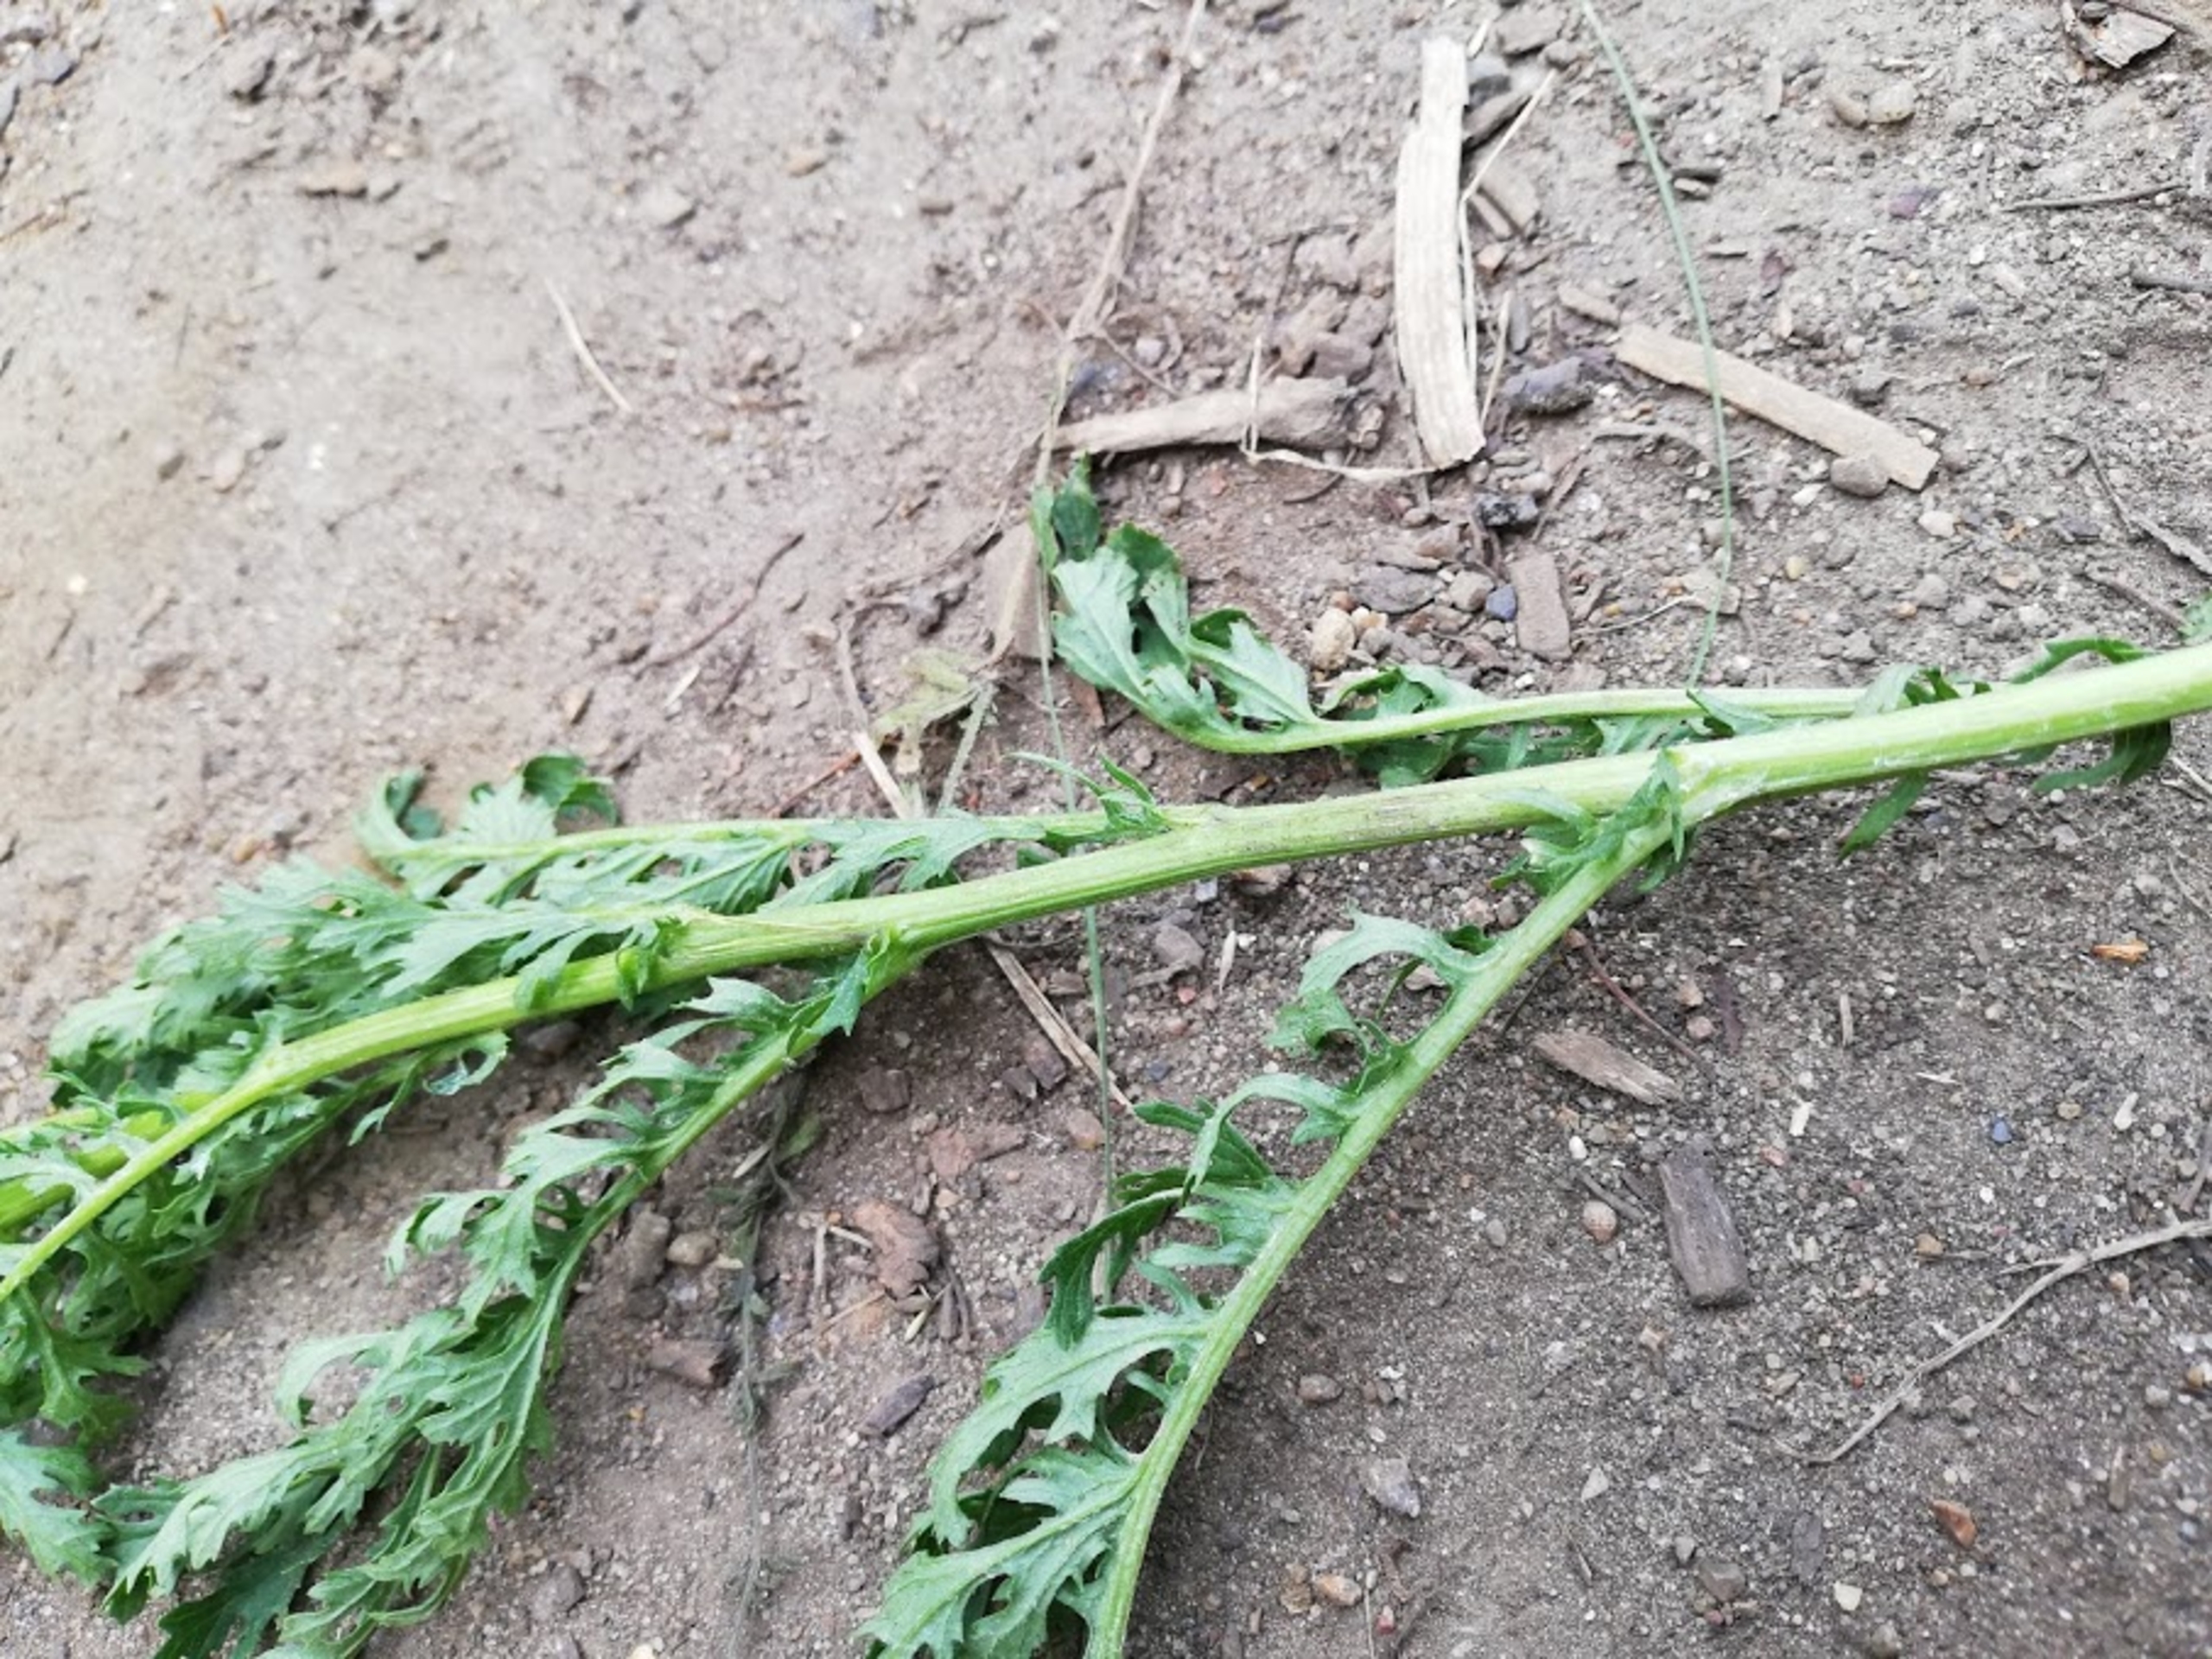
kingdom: Plantae
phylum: Tracheophyta
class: Magnoliopsida
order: Asterales
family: Asteraceae
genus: Jacobaea
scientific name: Jacobaea vulgaris
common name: Eng-brandbæger
